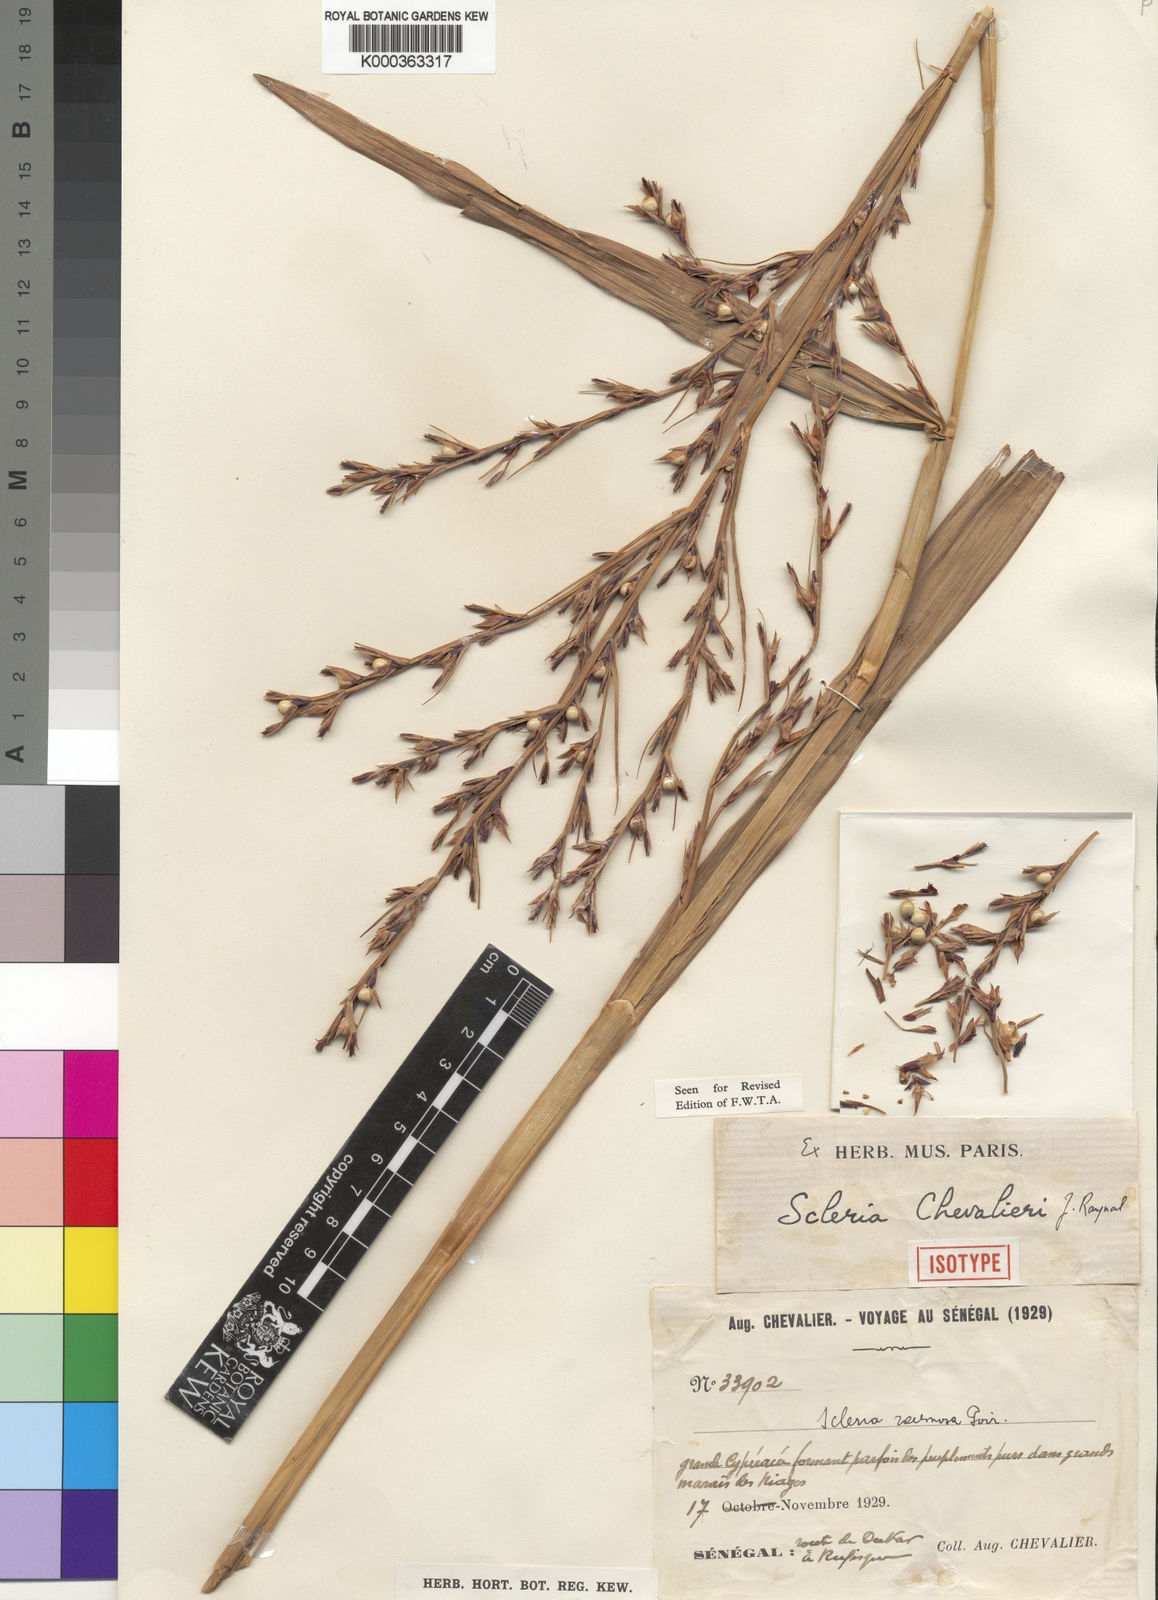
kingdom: Plantae
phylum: Tracheophyta
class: Liliopsida
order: Poales
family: Cyperaceae
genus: Scleria
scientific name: Scleria chevalieri
